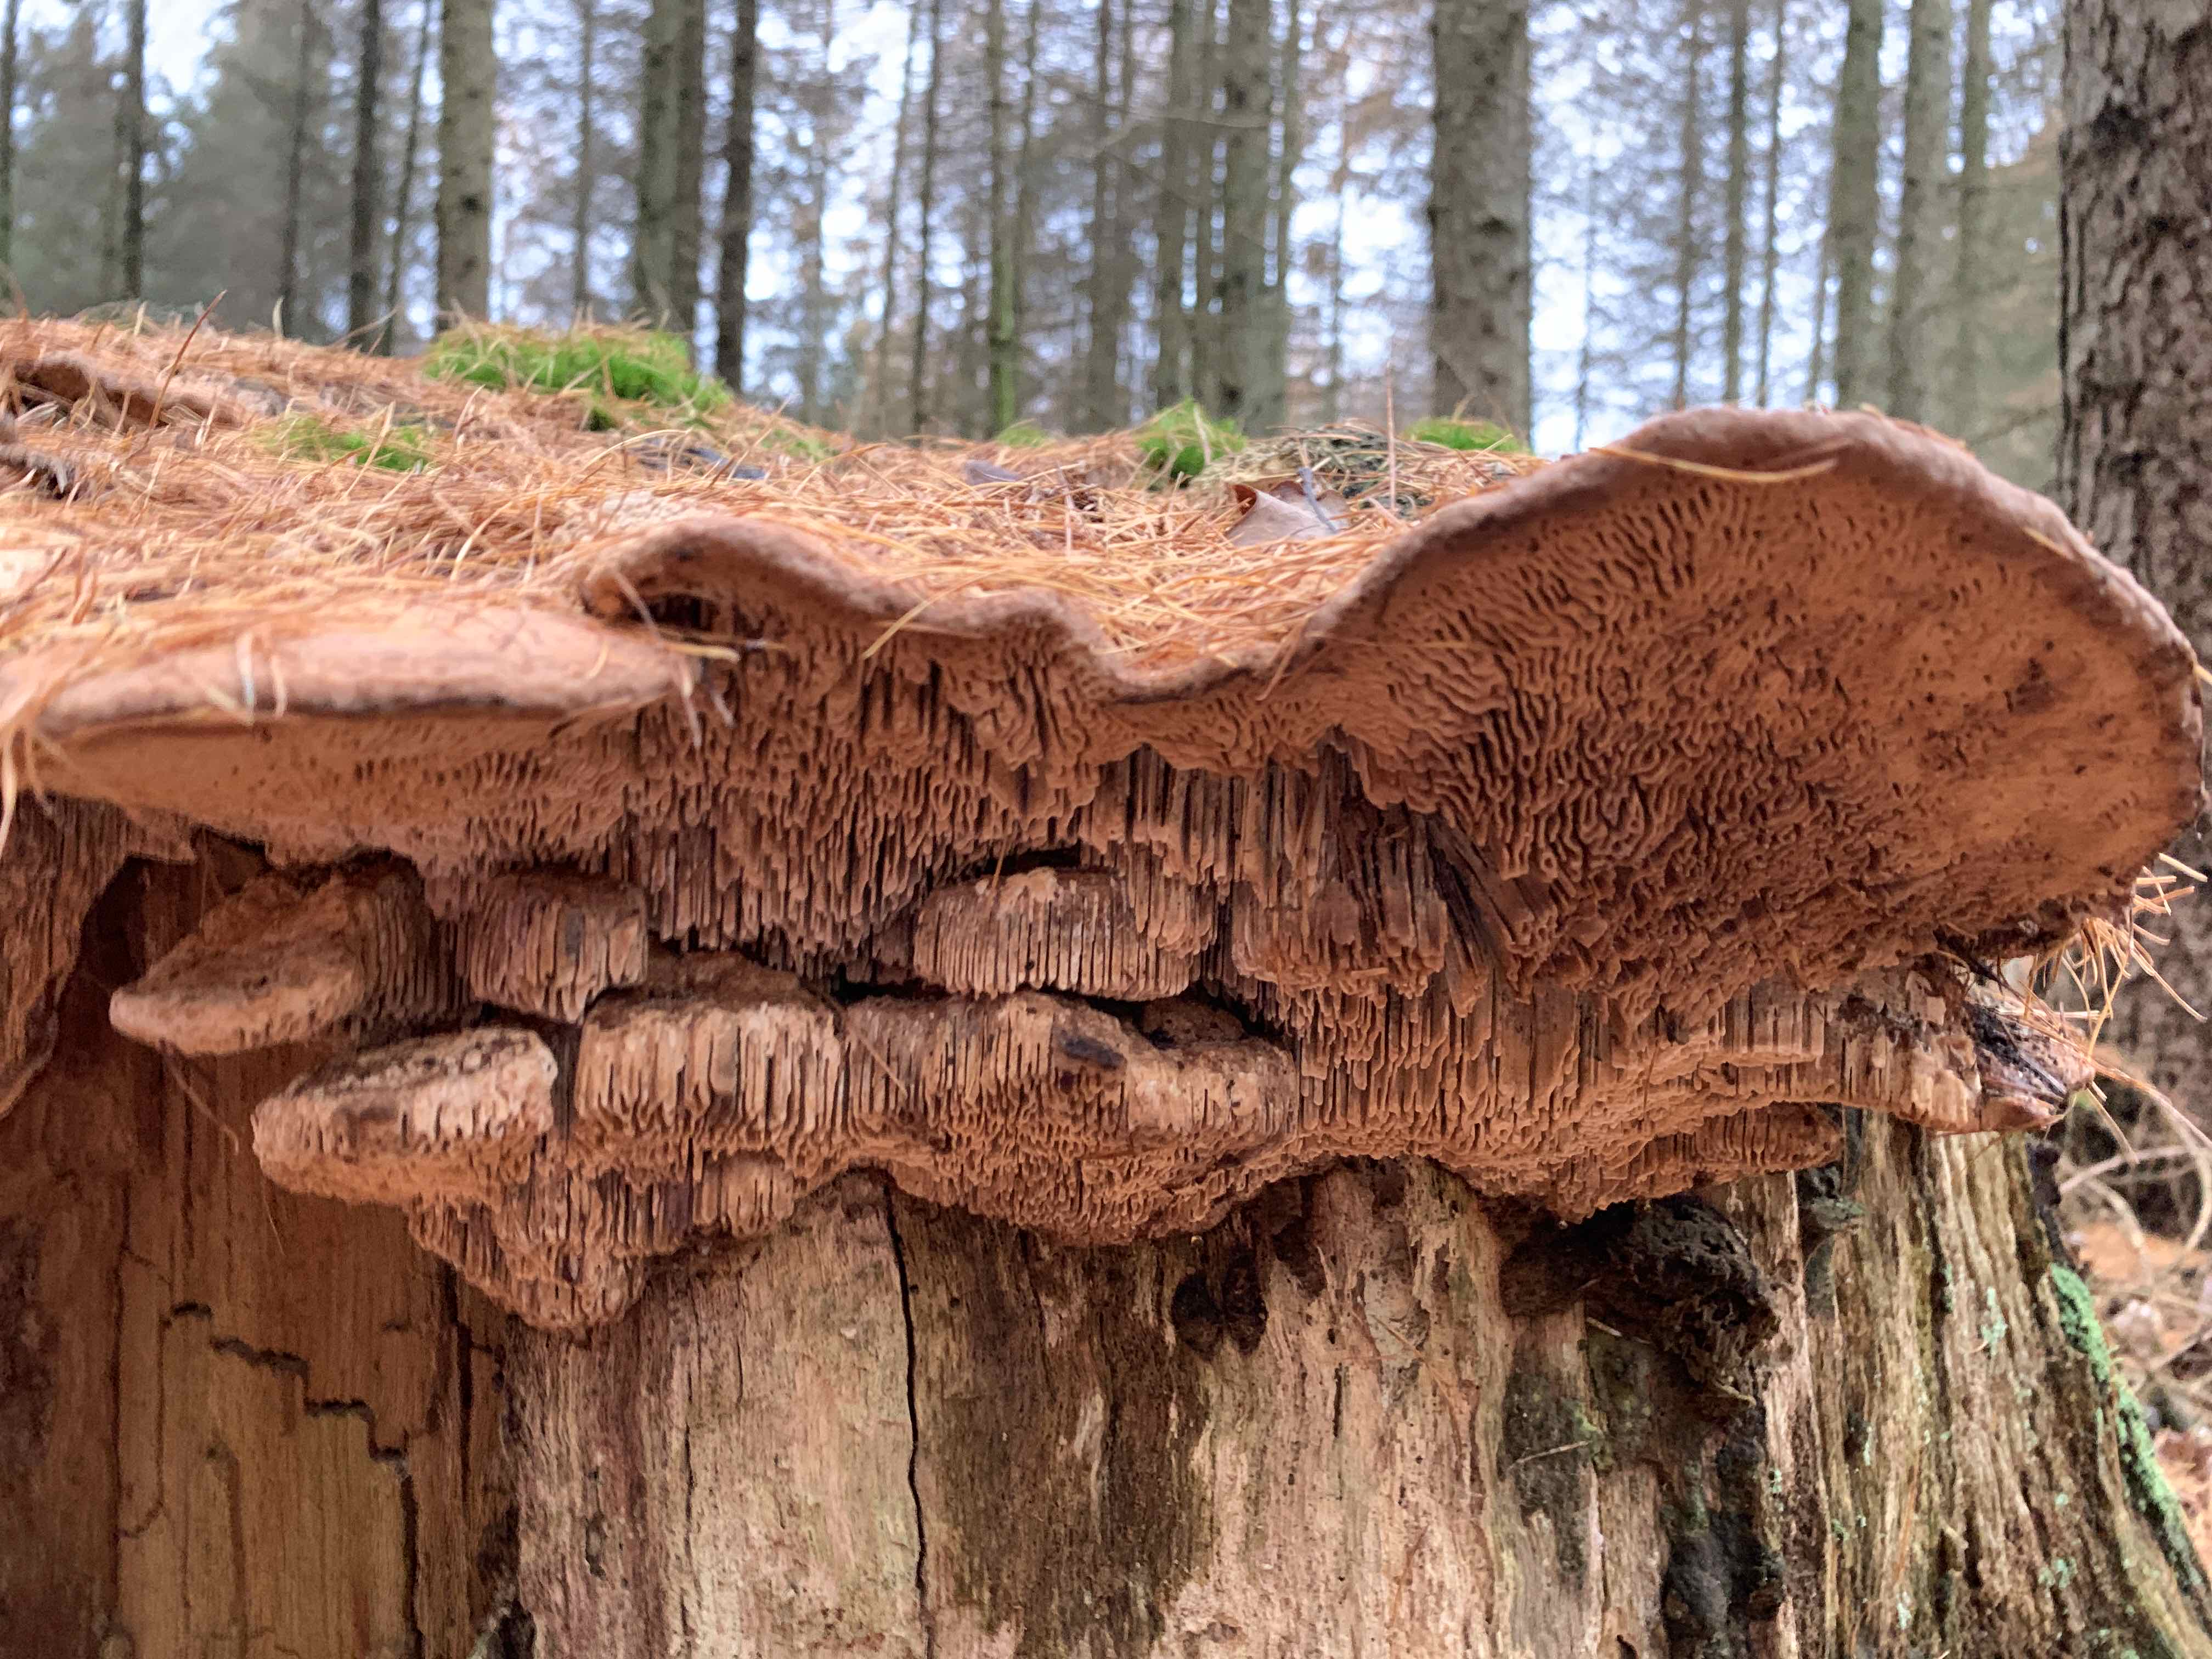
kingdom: Fungi
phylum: Basidiomycota
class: Agaricomycetes
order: Polyporales
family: Fomitopsidaceae
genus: Daedalea
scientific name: Daedalea quercina
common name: ege-labyrintsvamp
